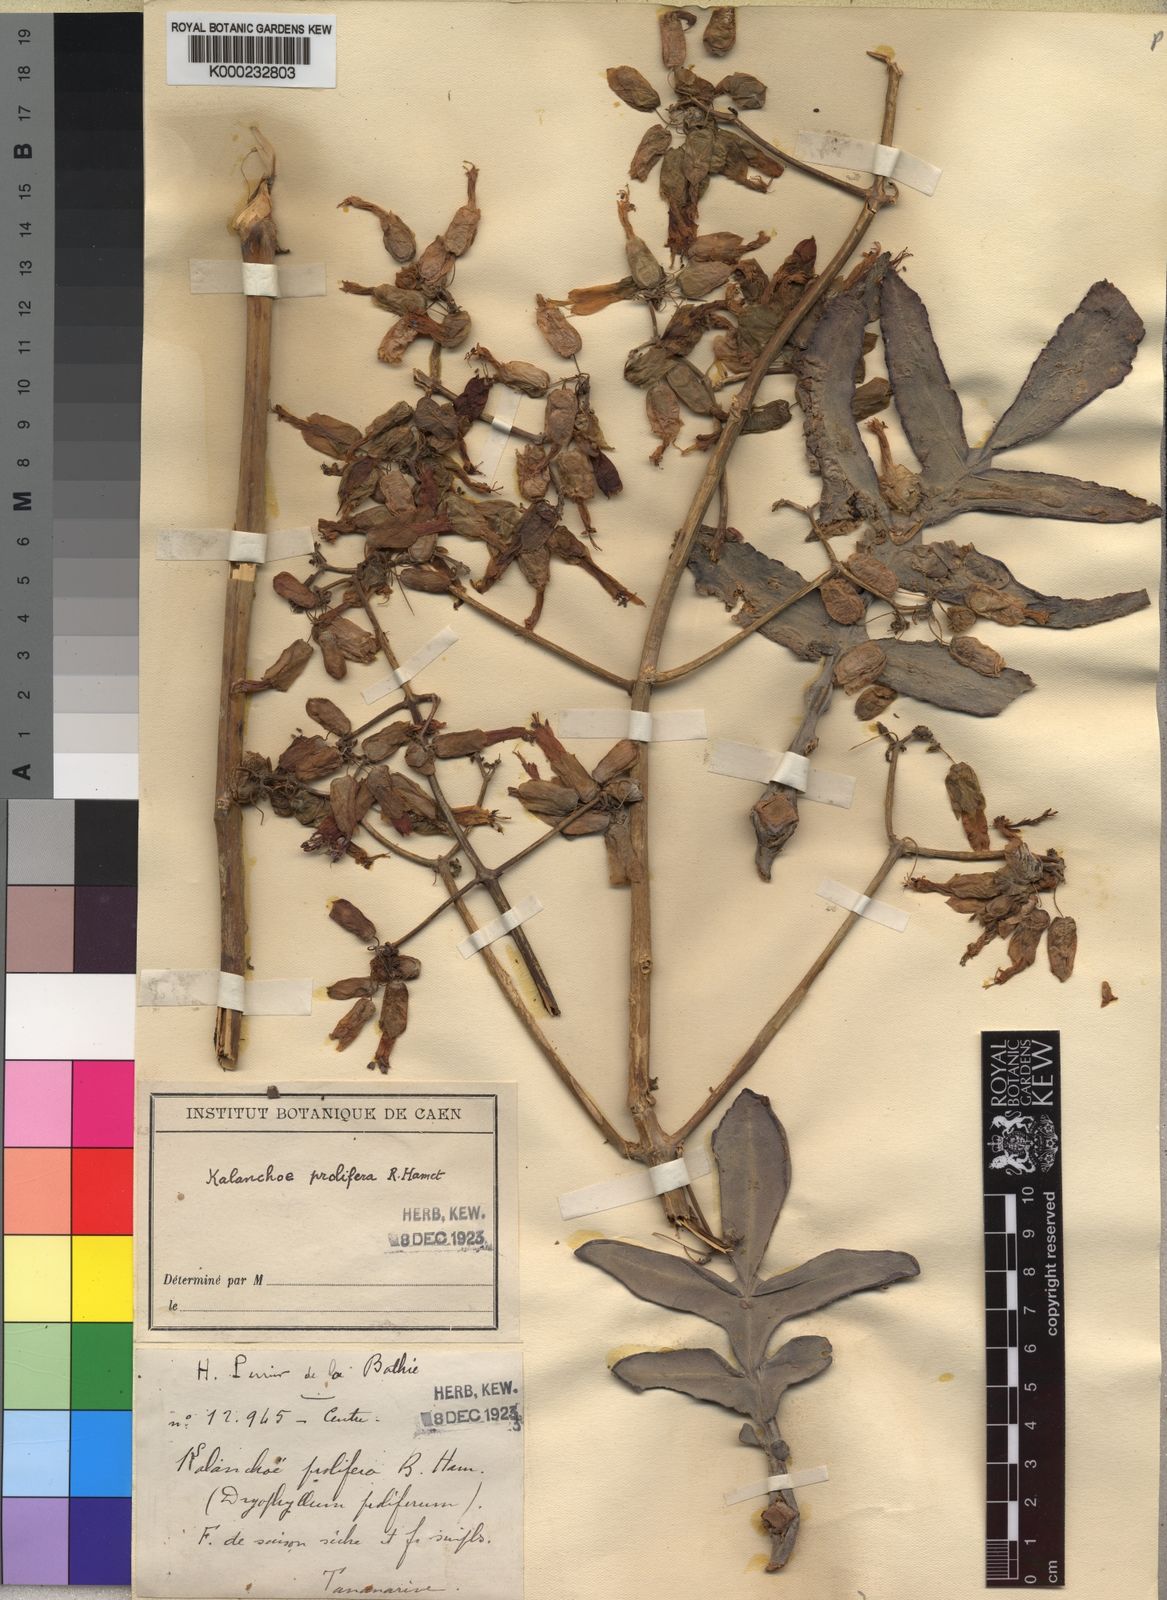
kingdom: Plantae
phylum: Tracheophyta
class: Magnoliopsida
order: Saxifragales
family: Crassulaceae
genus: Kalanchoe
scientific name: Kalanchoe prolifera
